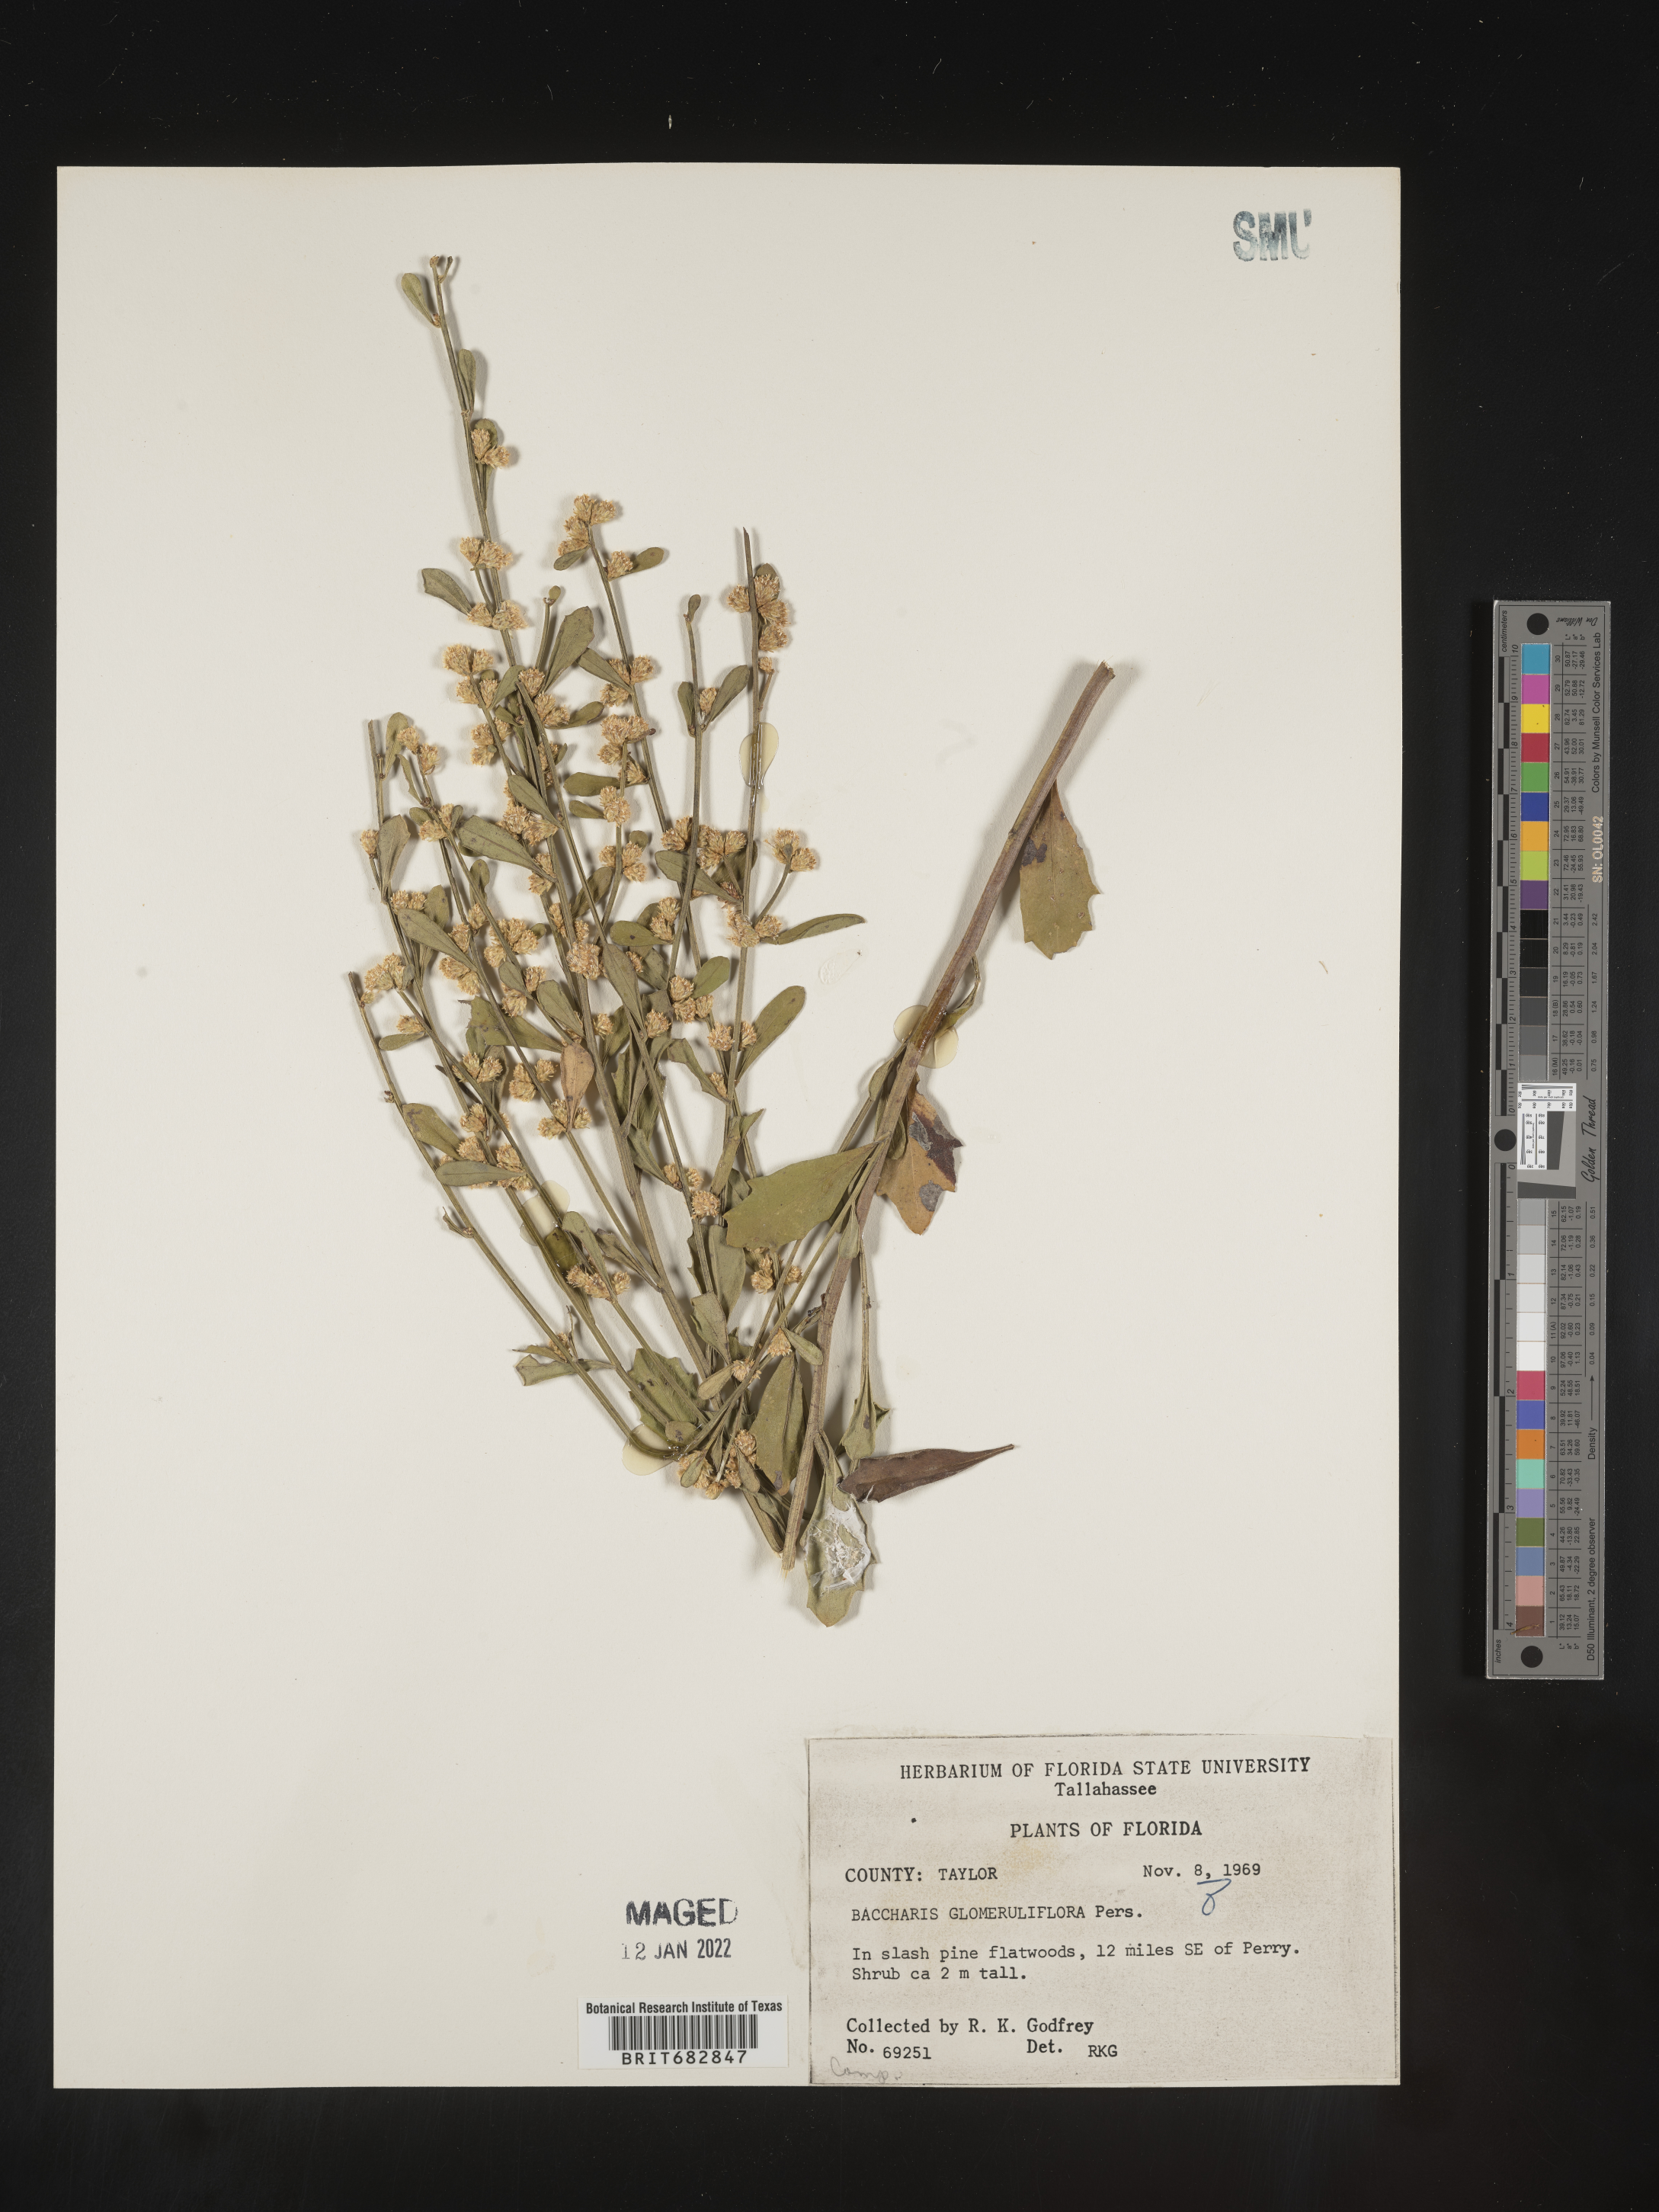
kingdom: Plantae
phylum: Tracheophyta
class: Magnoliopsida
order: Asterales
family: Asteraceae
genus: Baccharis
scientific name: Baccharis glomeruliflora
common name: Silverling groundsel bush
